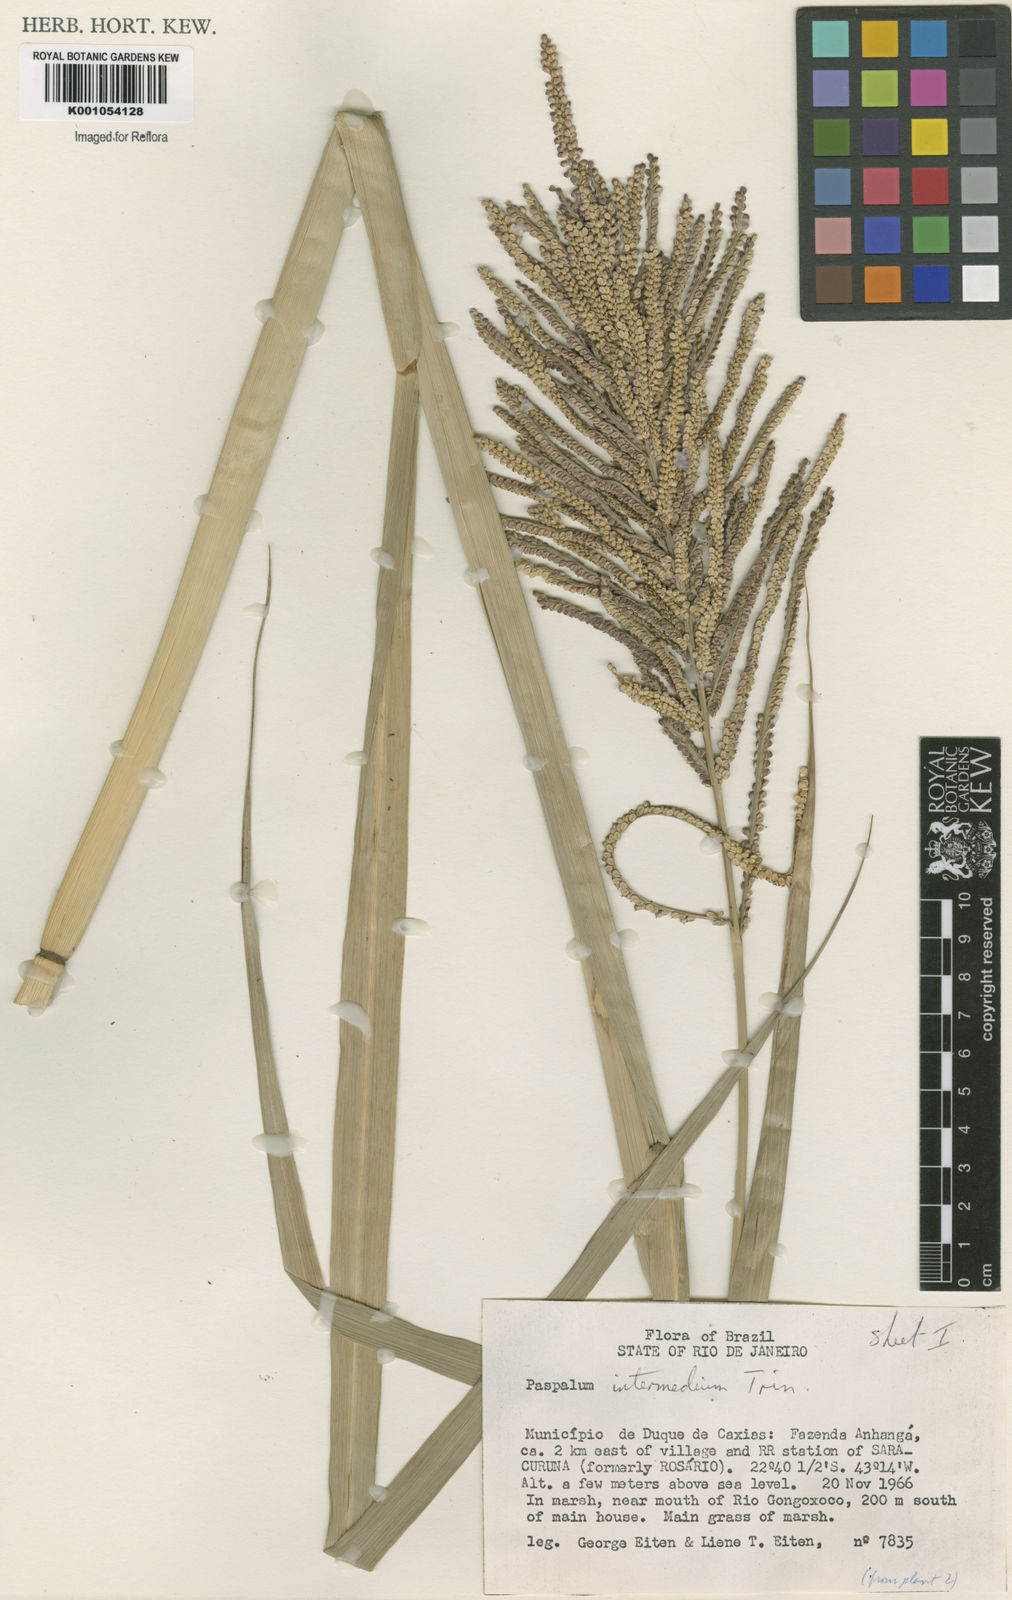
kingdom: Plantae
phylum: Tracheophyta
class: Liliopsida
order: Poales
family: Poaceae
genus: Paspalum
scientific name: Paspalum
